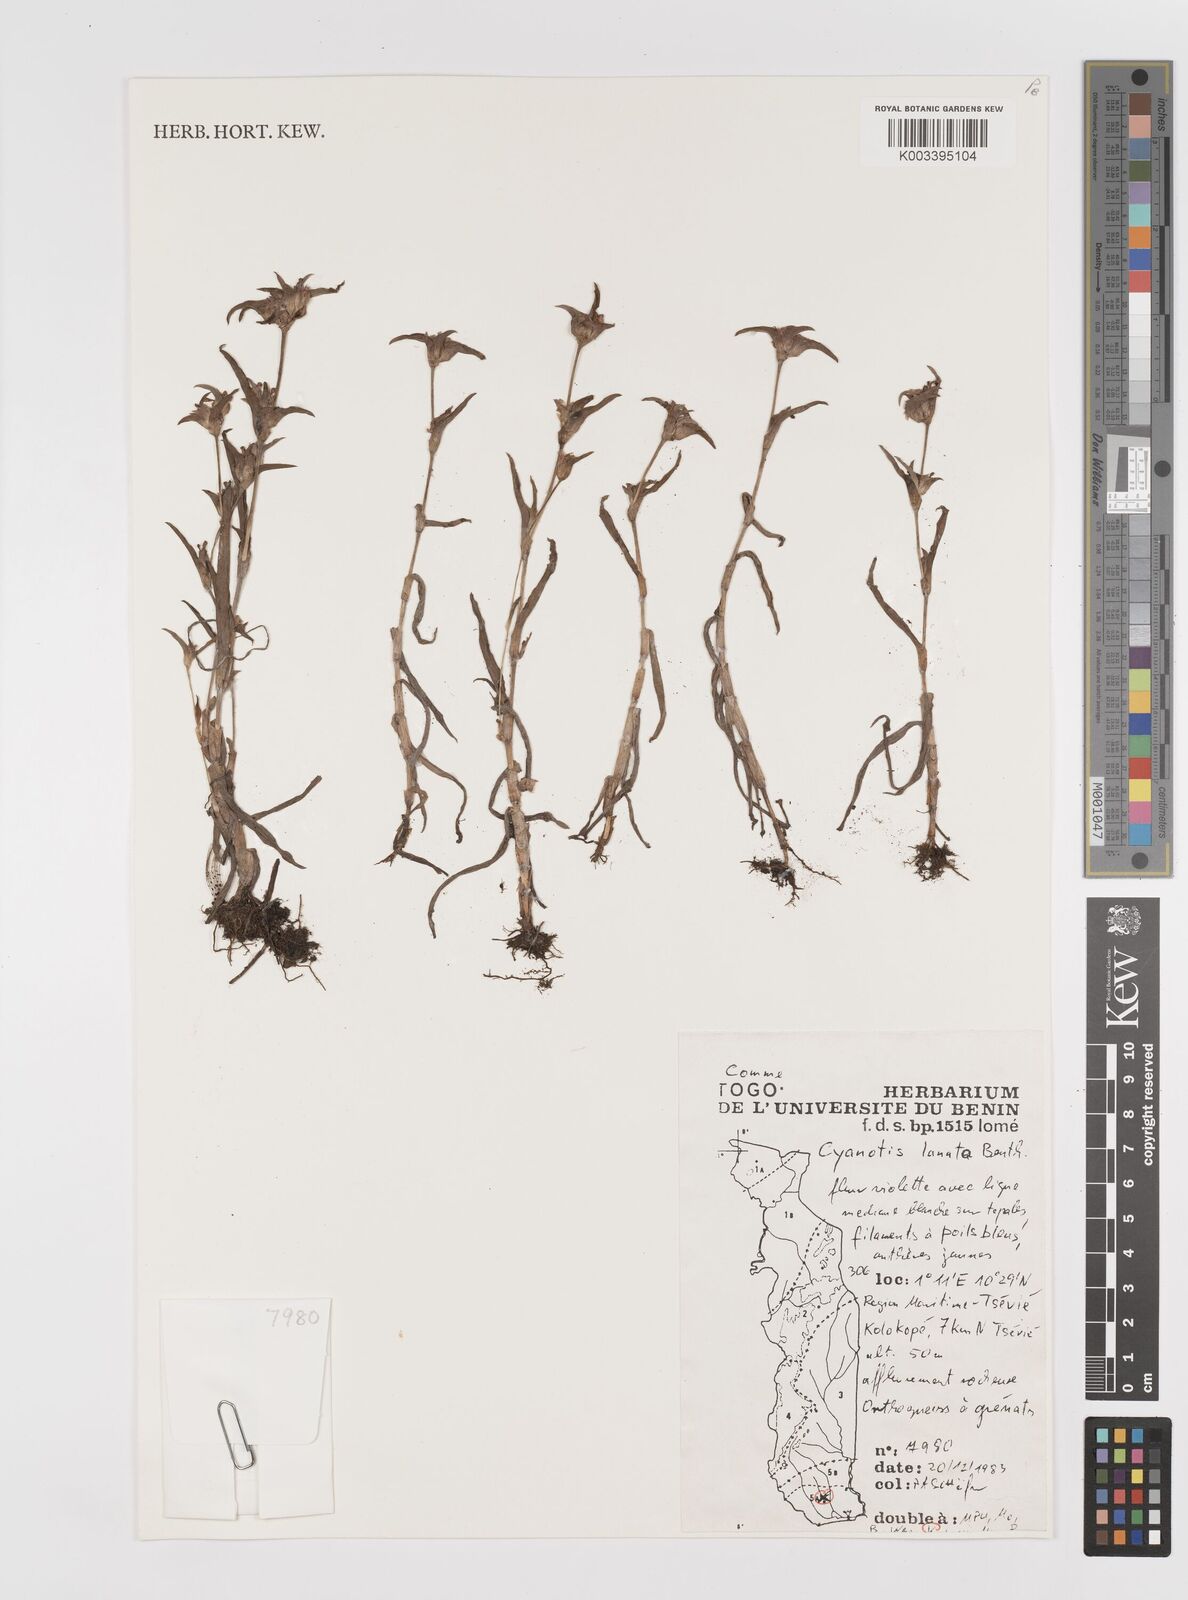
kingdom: Plantae
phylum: Tracheophyta
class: Liliopsida
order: Commelinales
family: Commelinaceae
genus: Cyanotis
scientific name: Cyanotis lanata
